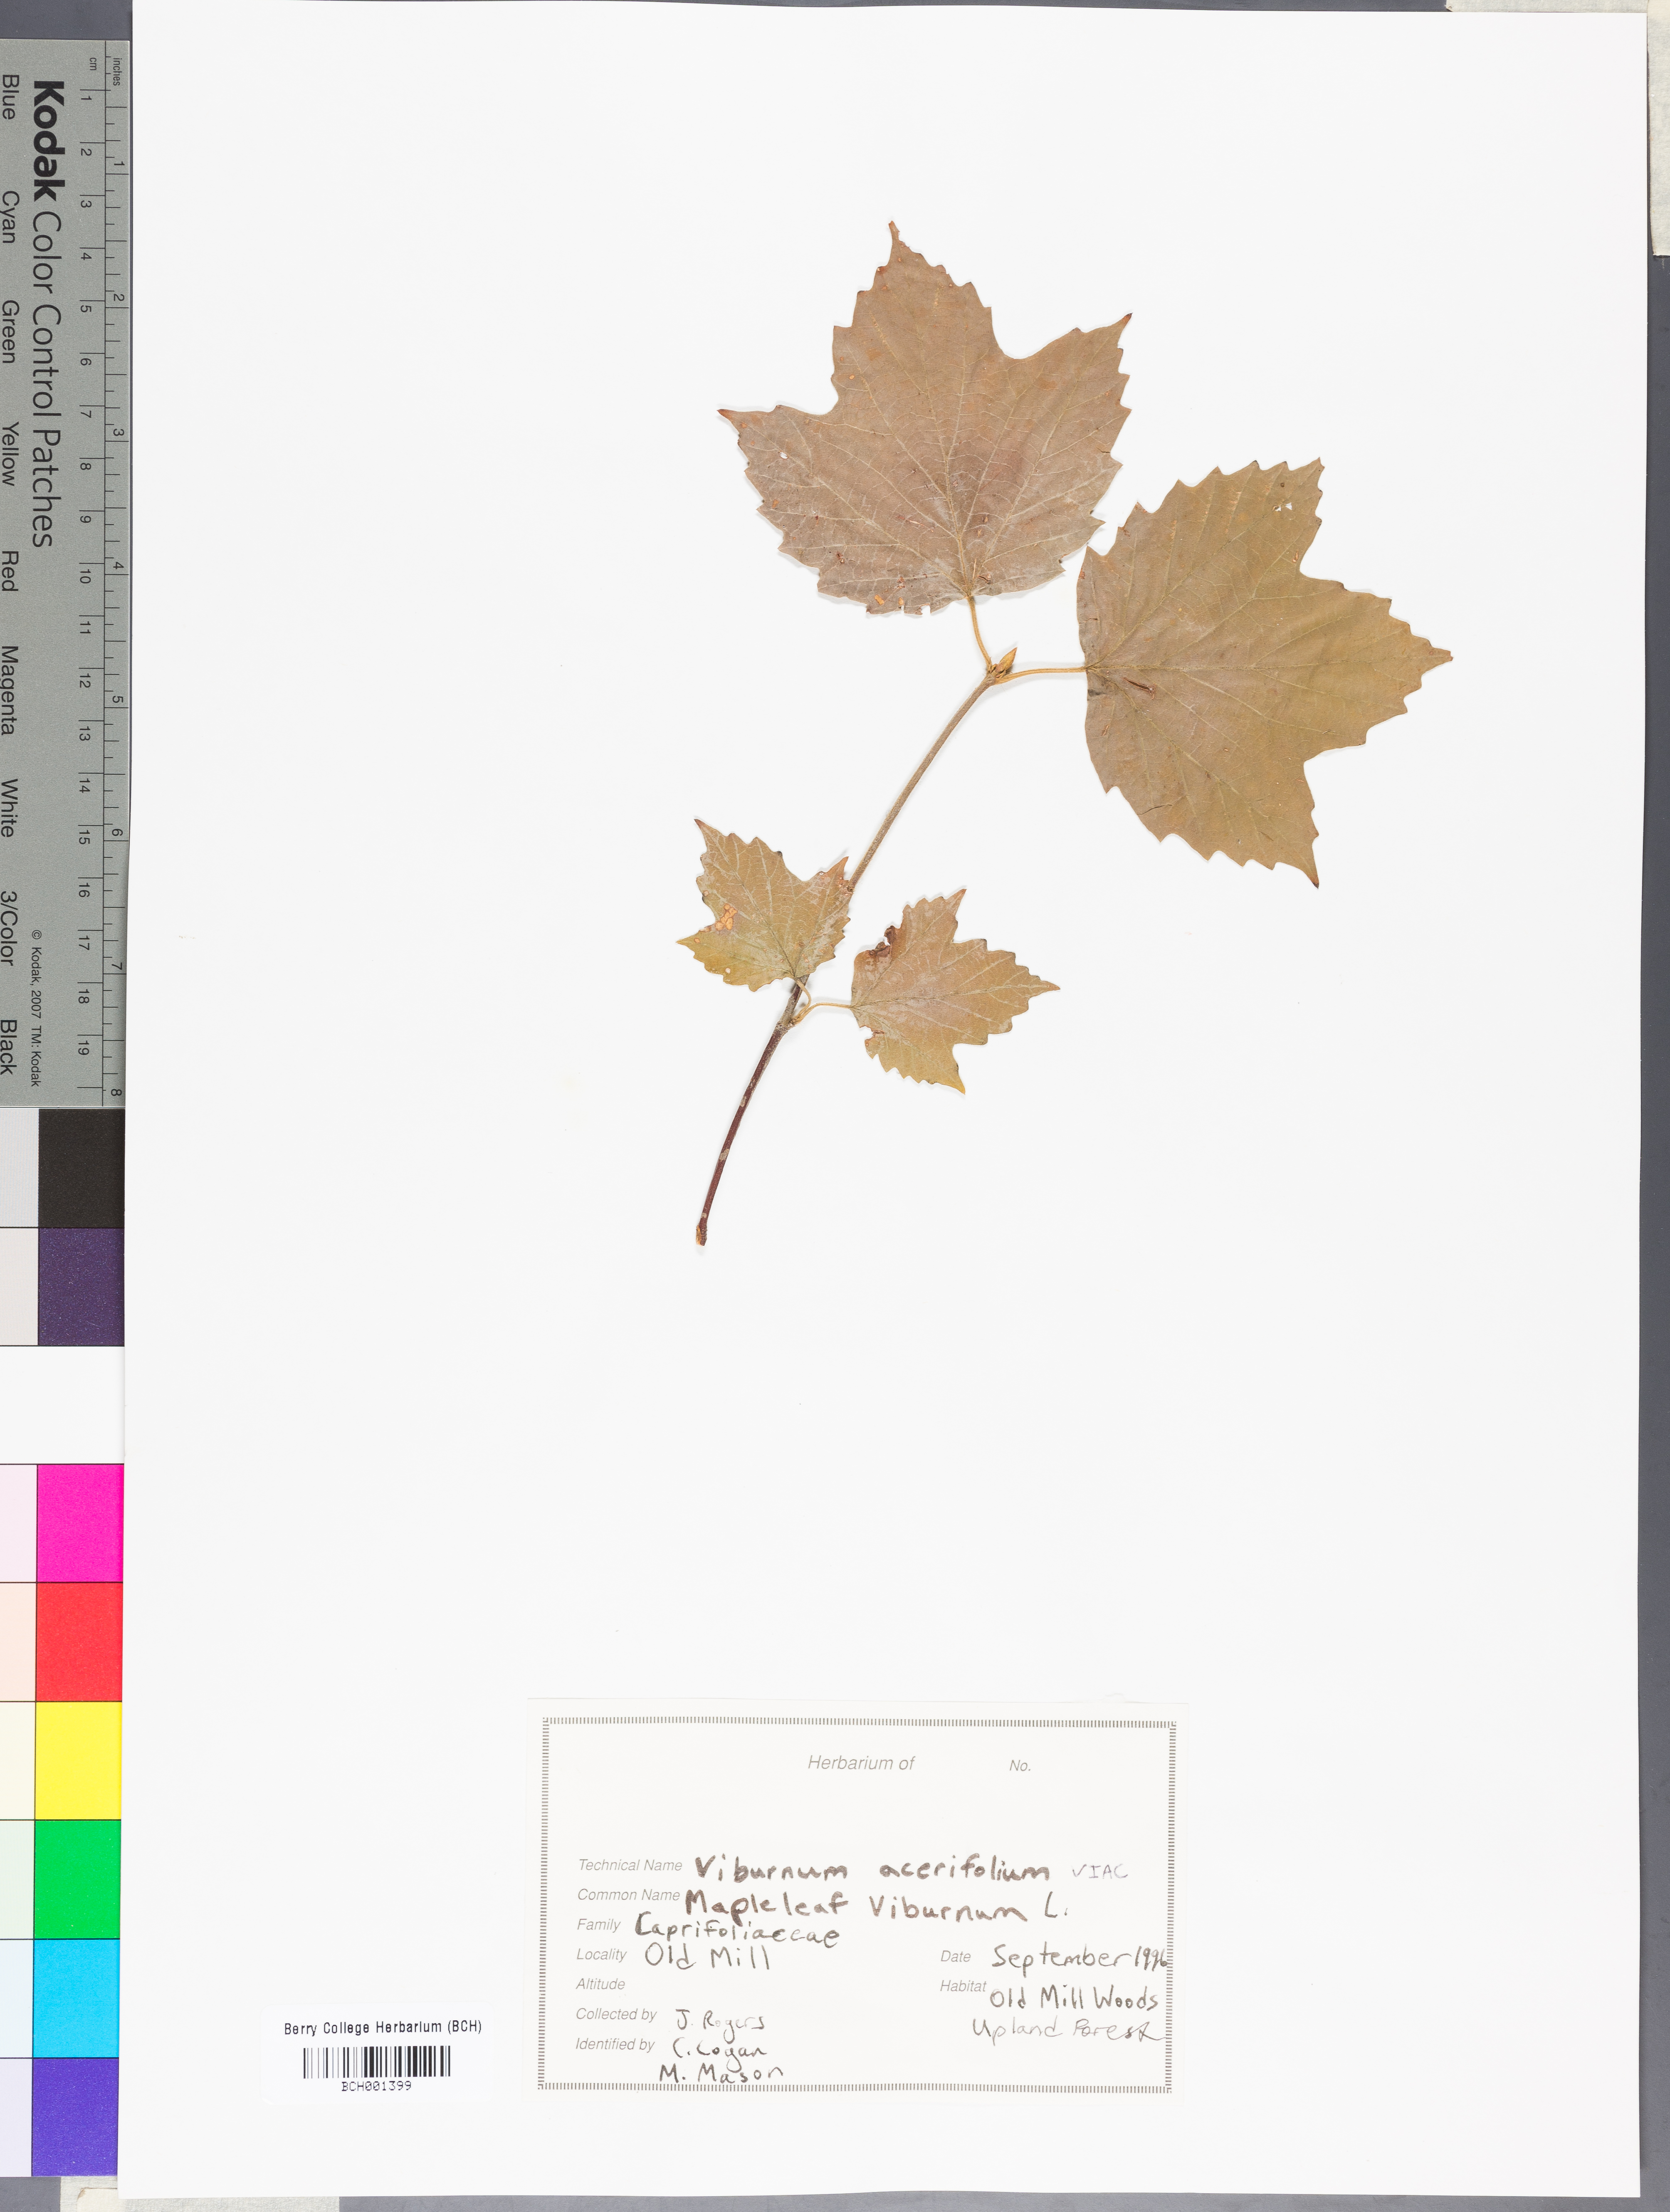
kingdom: Plantae
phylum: Tracheophyta
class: Magnoliopsida
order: Dipsacales
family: Viburnaceae
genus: Viburnum
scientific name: Viburnum acerifolium
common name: Dockmackie
